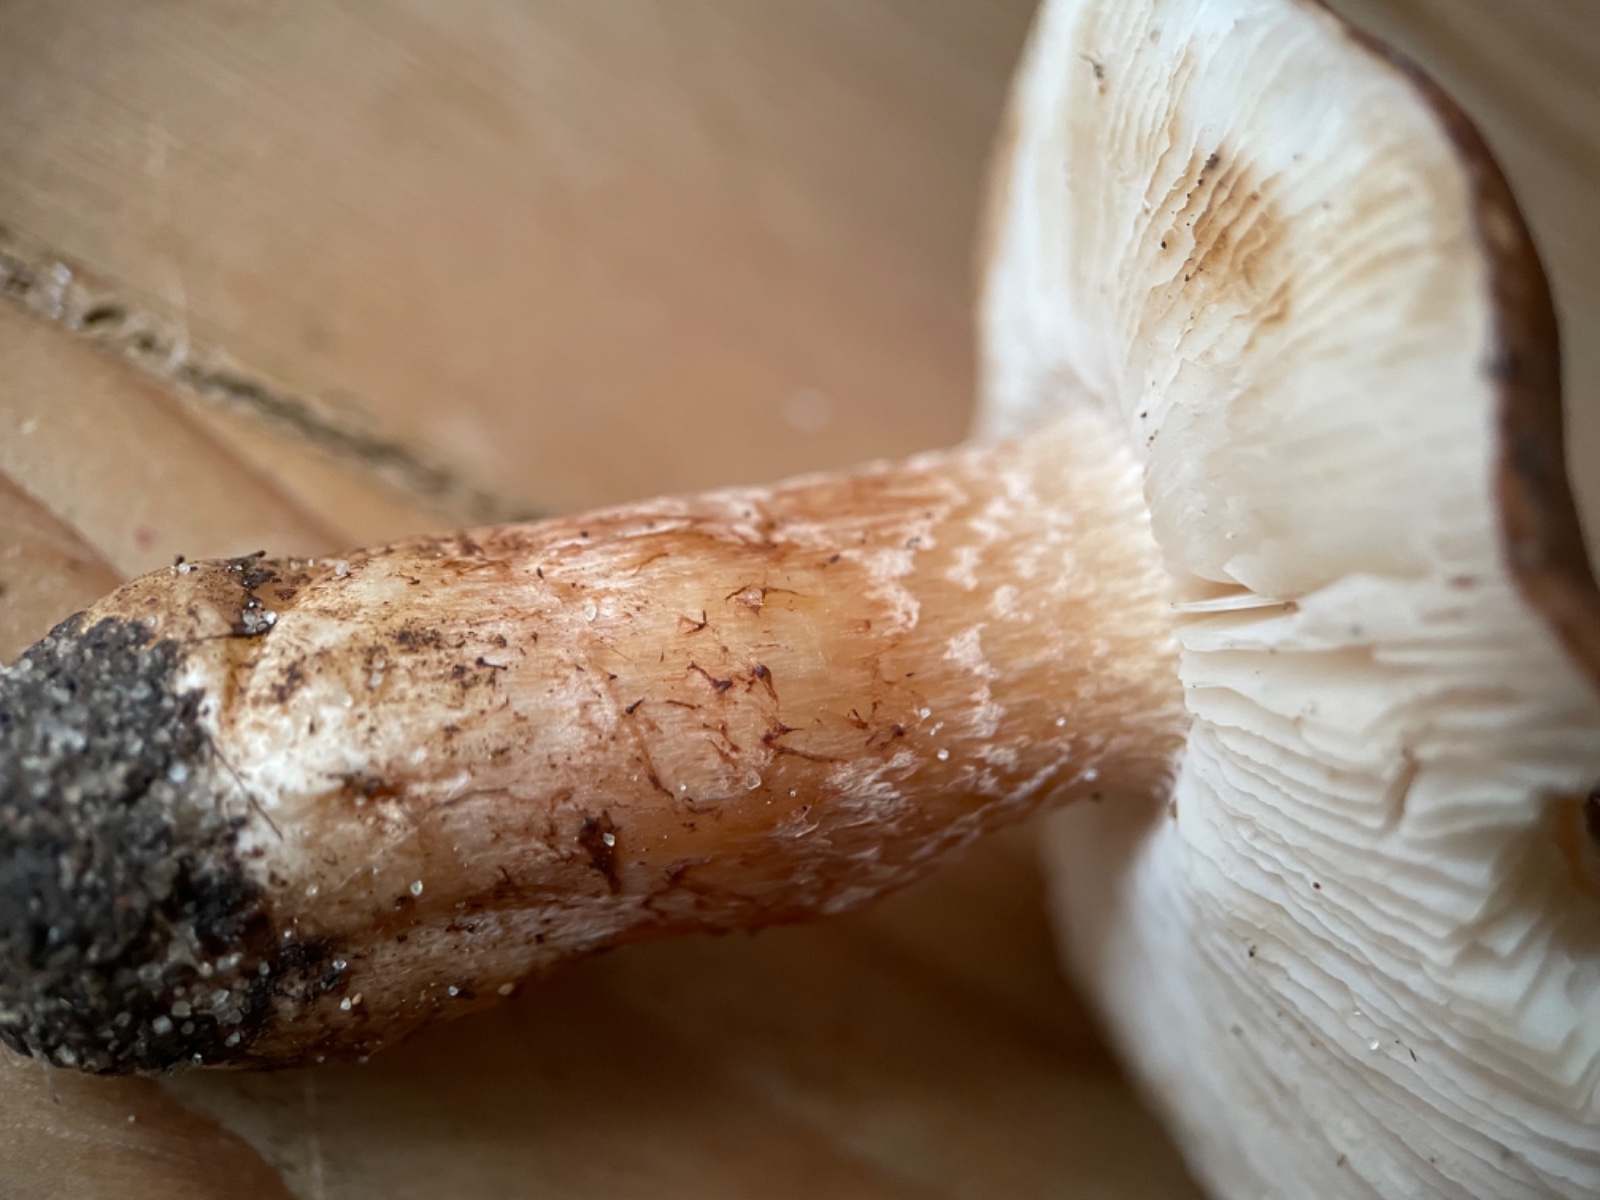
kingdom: Fungi
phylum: Basidiomycota
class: Agaricomycetes
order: Agaricales
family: Tricholomataceae
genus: Tricholoma
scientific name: Tricholoma albobrunneum
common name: kastanie-ridderhat
